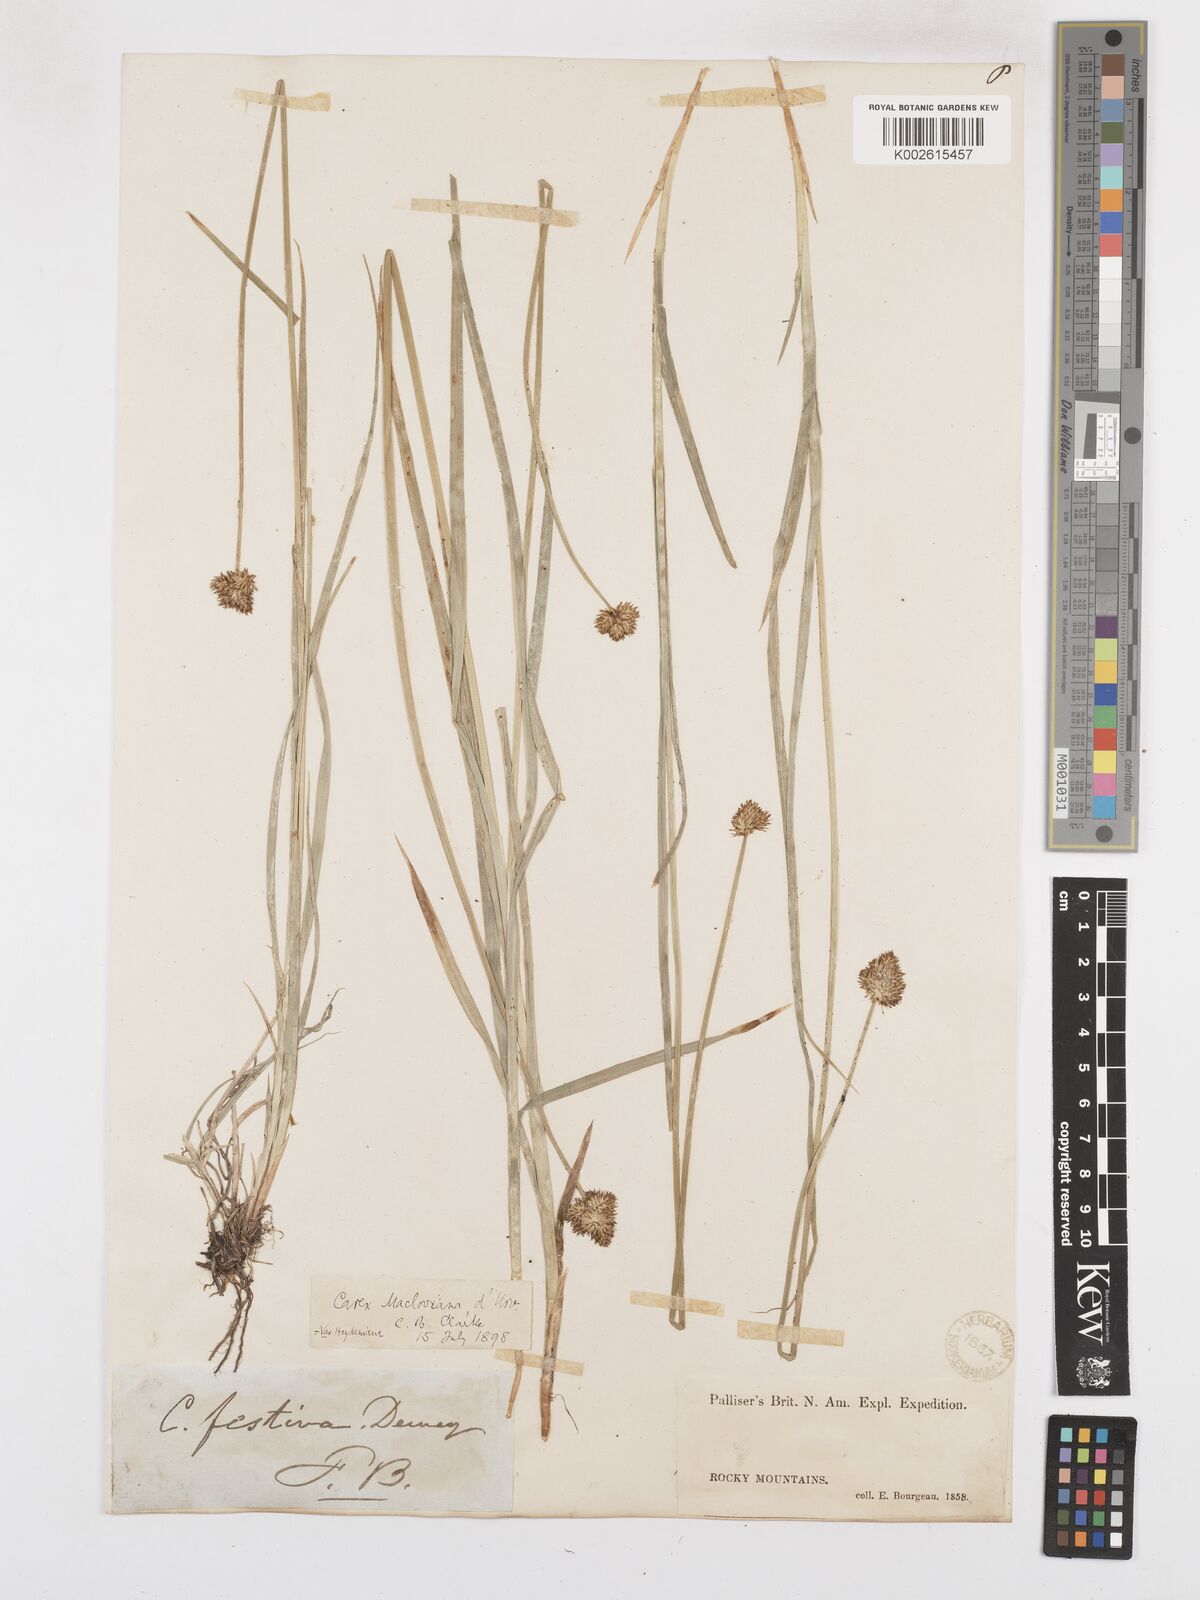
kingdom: Plantae
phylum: Tracheophyta
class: Liliopsida
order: Poales
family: Cyperaceae
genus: Carex
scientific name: Carex haydeniana
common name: Cloud sedge
